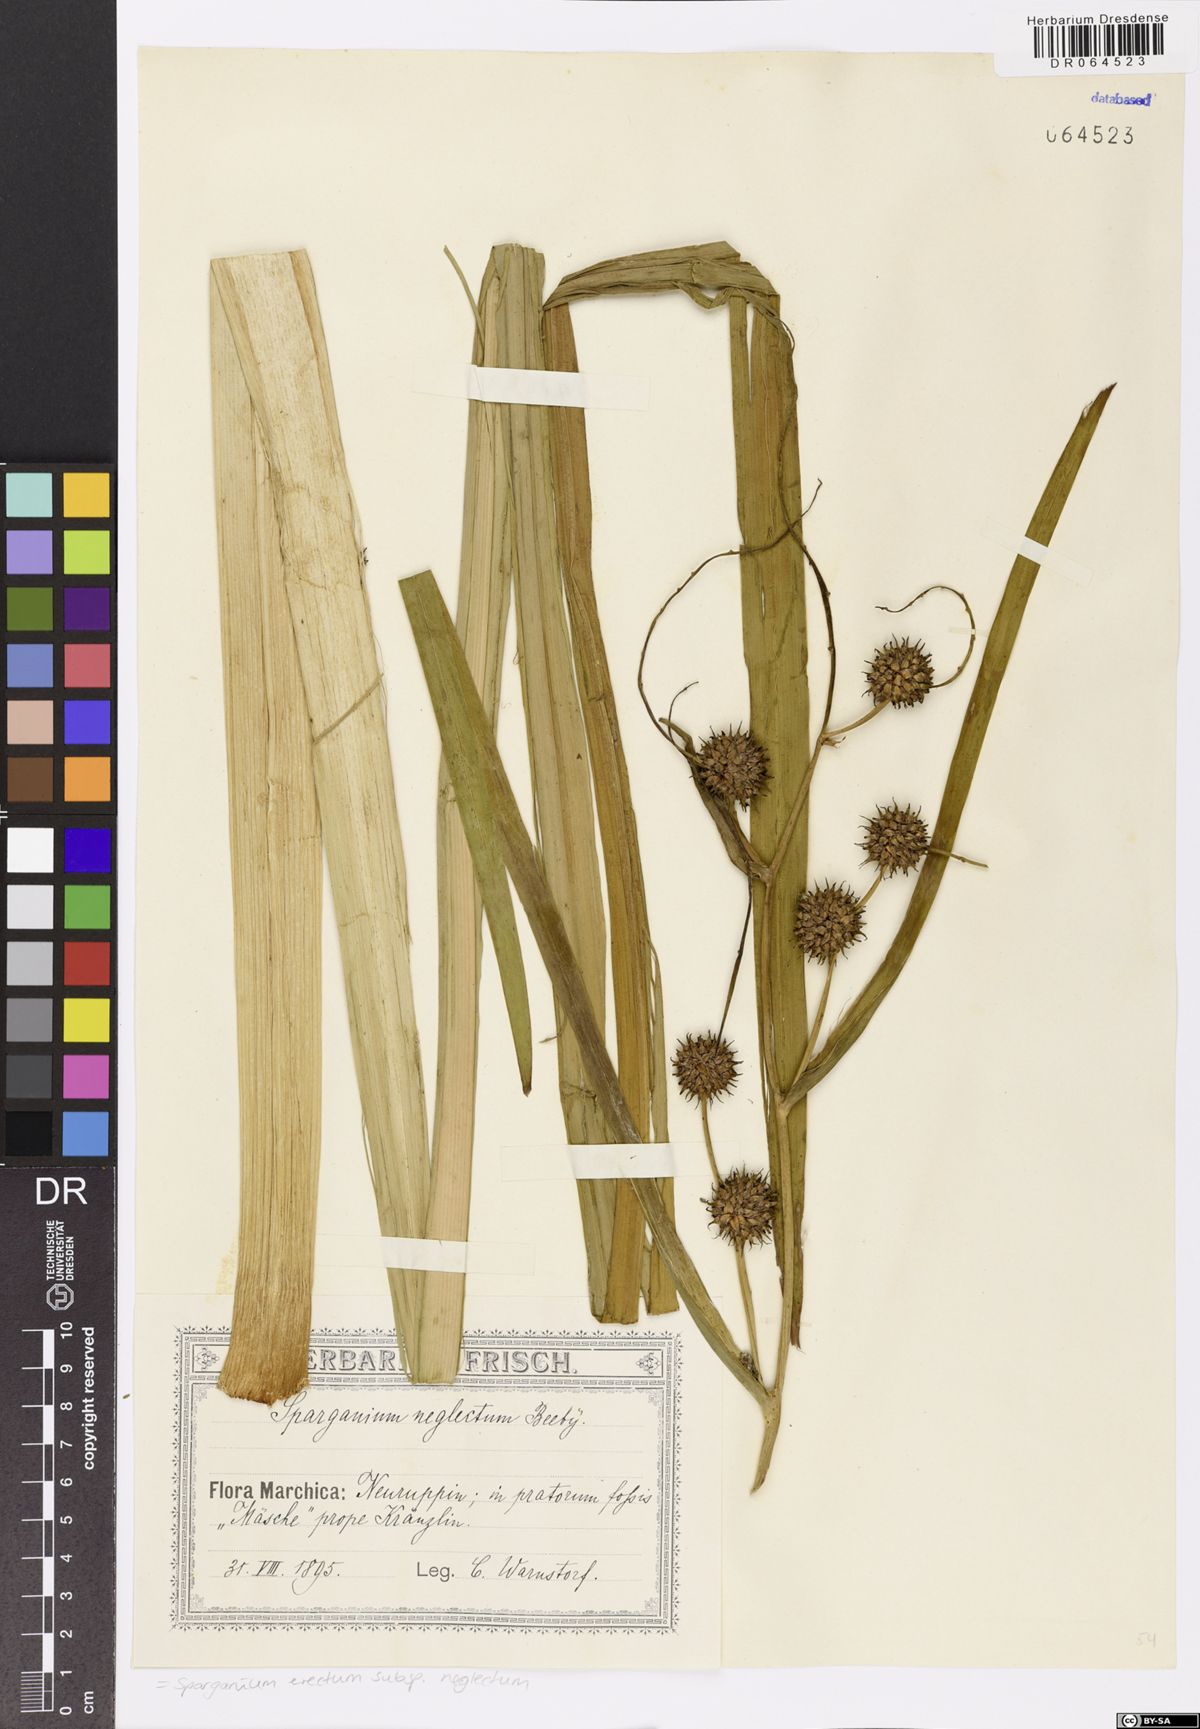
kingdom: Plantae
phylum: Tracheophyta
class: Liliopsida
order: Poales
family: Typhaceae
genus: Sparganium
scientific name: Sparganium erectum
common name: Branched bur-reed
